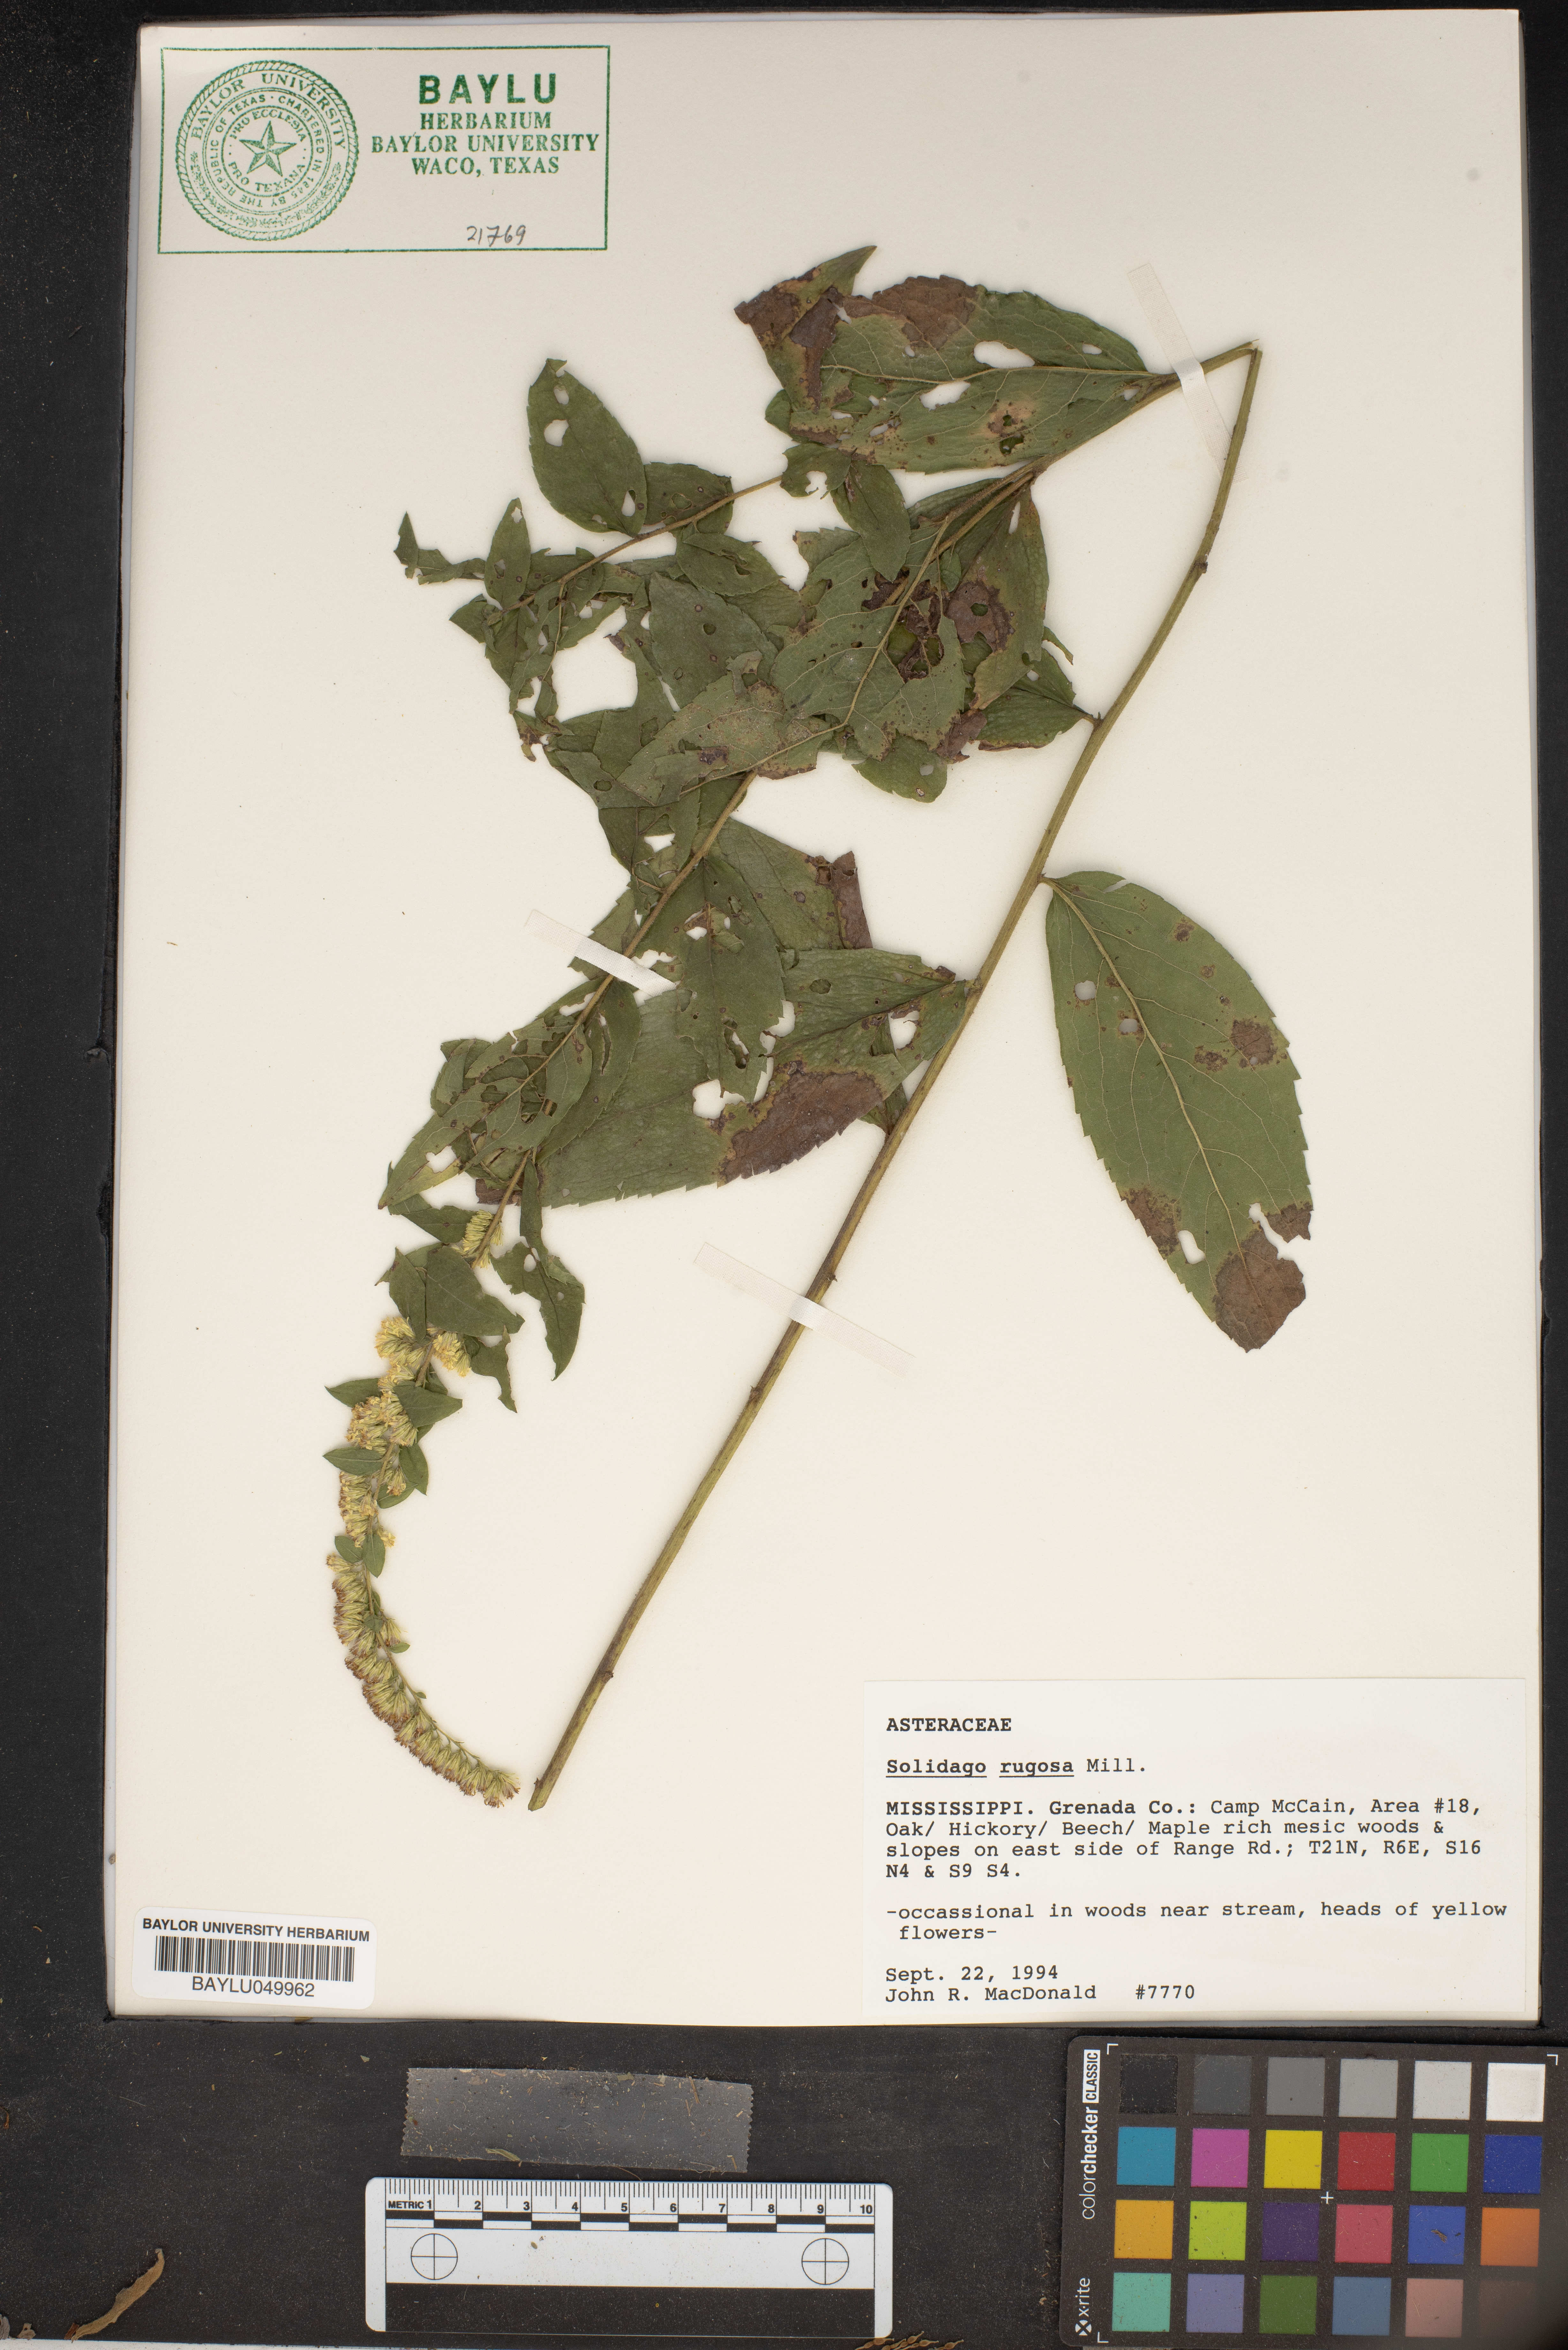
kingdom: Plantae
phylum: Tracheophyta
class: Magnoliopsida
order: Asterales
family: Asteraceae
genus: Solidago
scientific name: Solidago rugosa
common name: Rough-stemmed goldenrod
